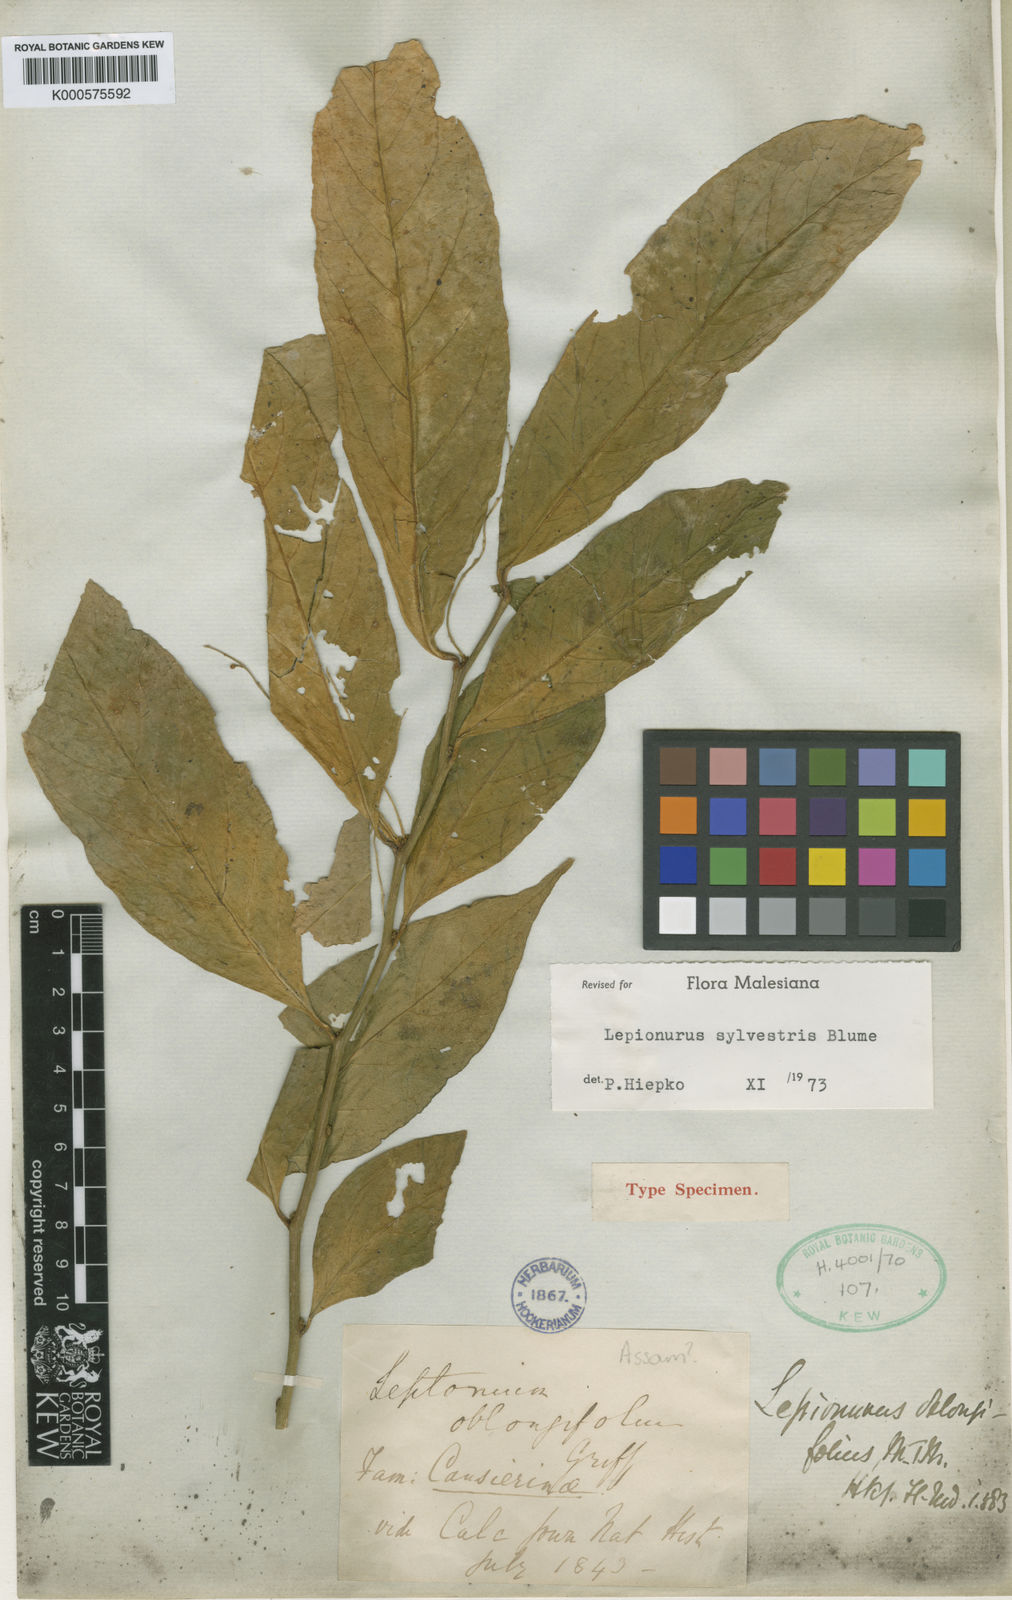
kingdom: Plantae
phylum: Tracheophyta
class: Magnoliopsida
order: Santalales
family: Opiliaceae
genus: Lepionurus
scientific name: Lepionurus sylvestris
